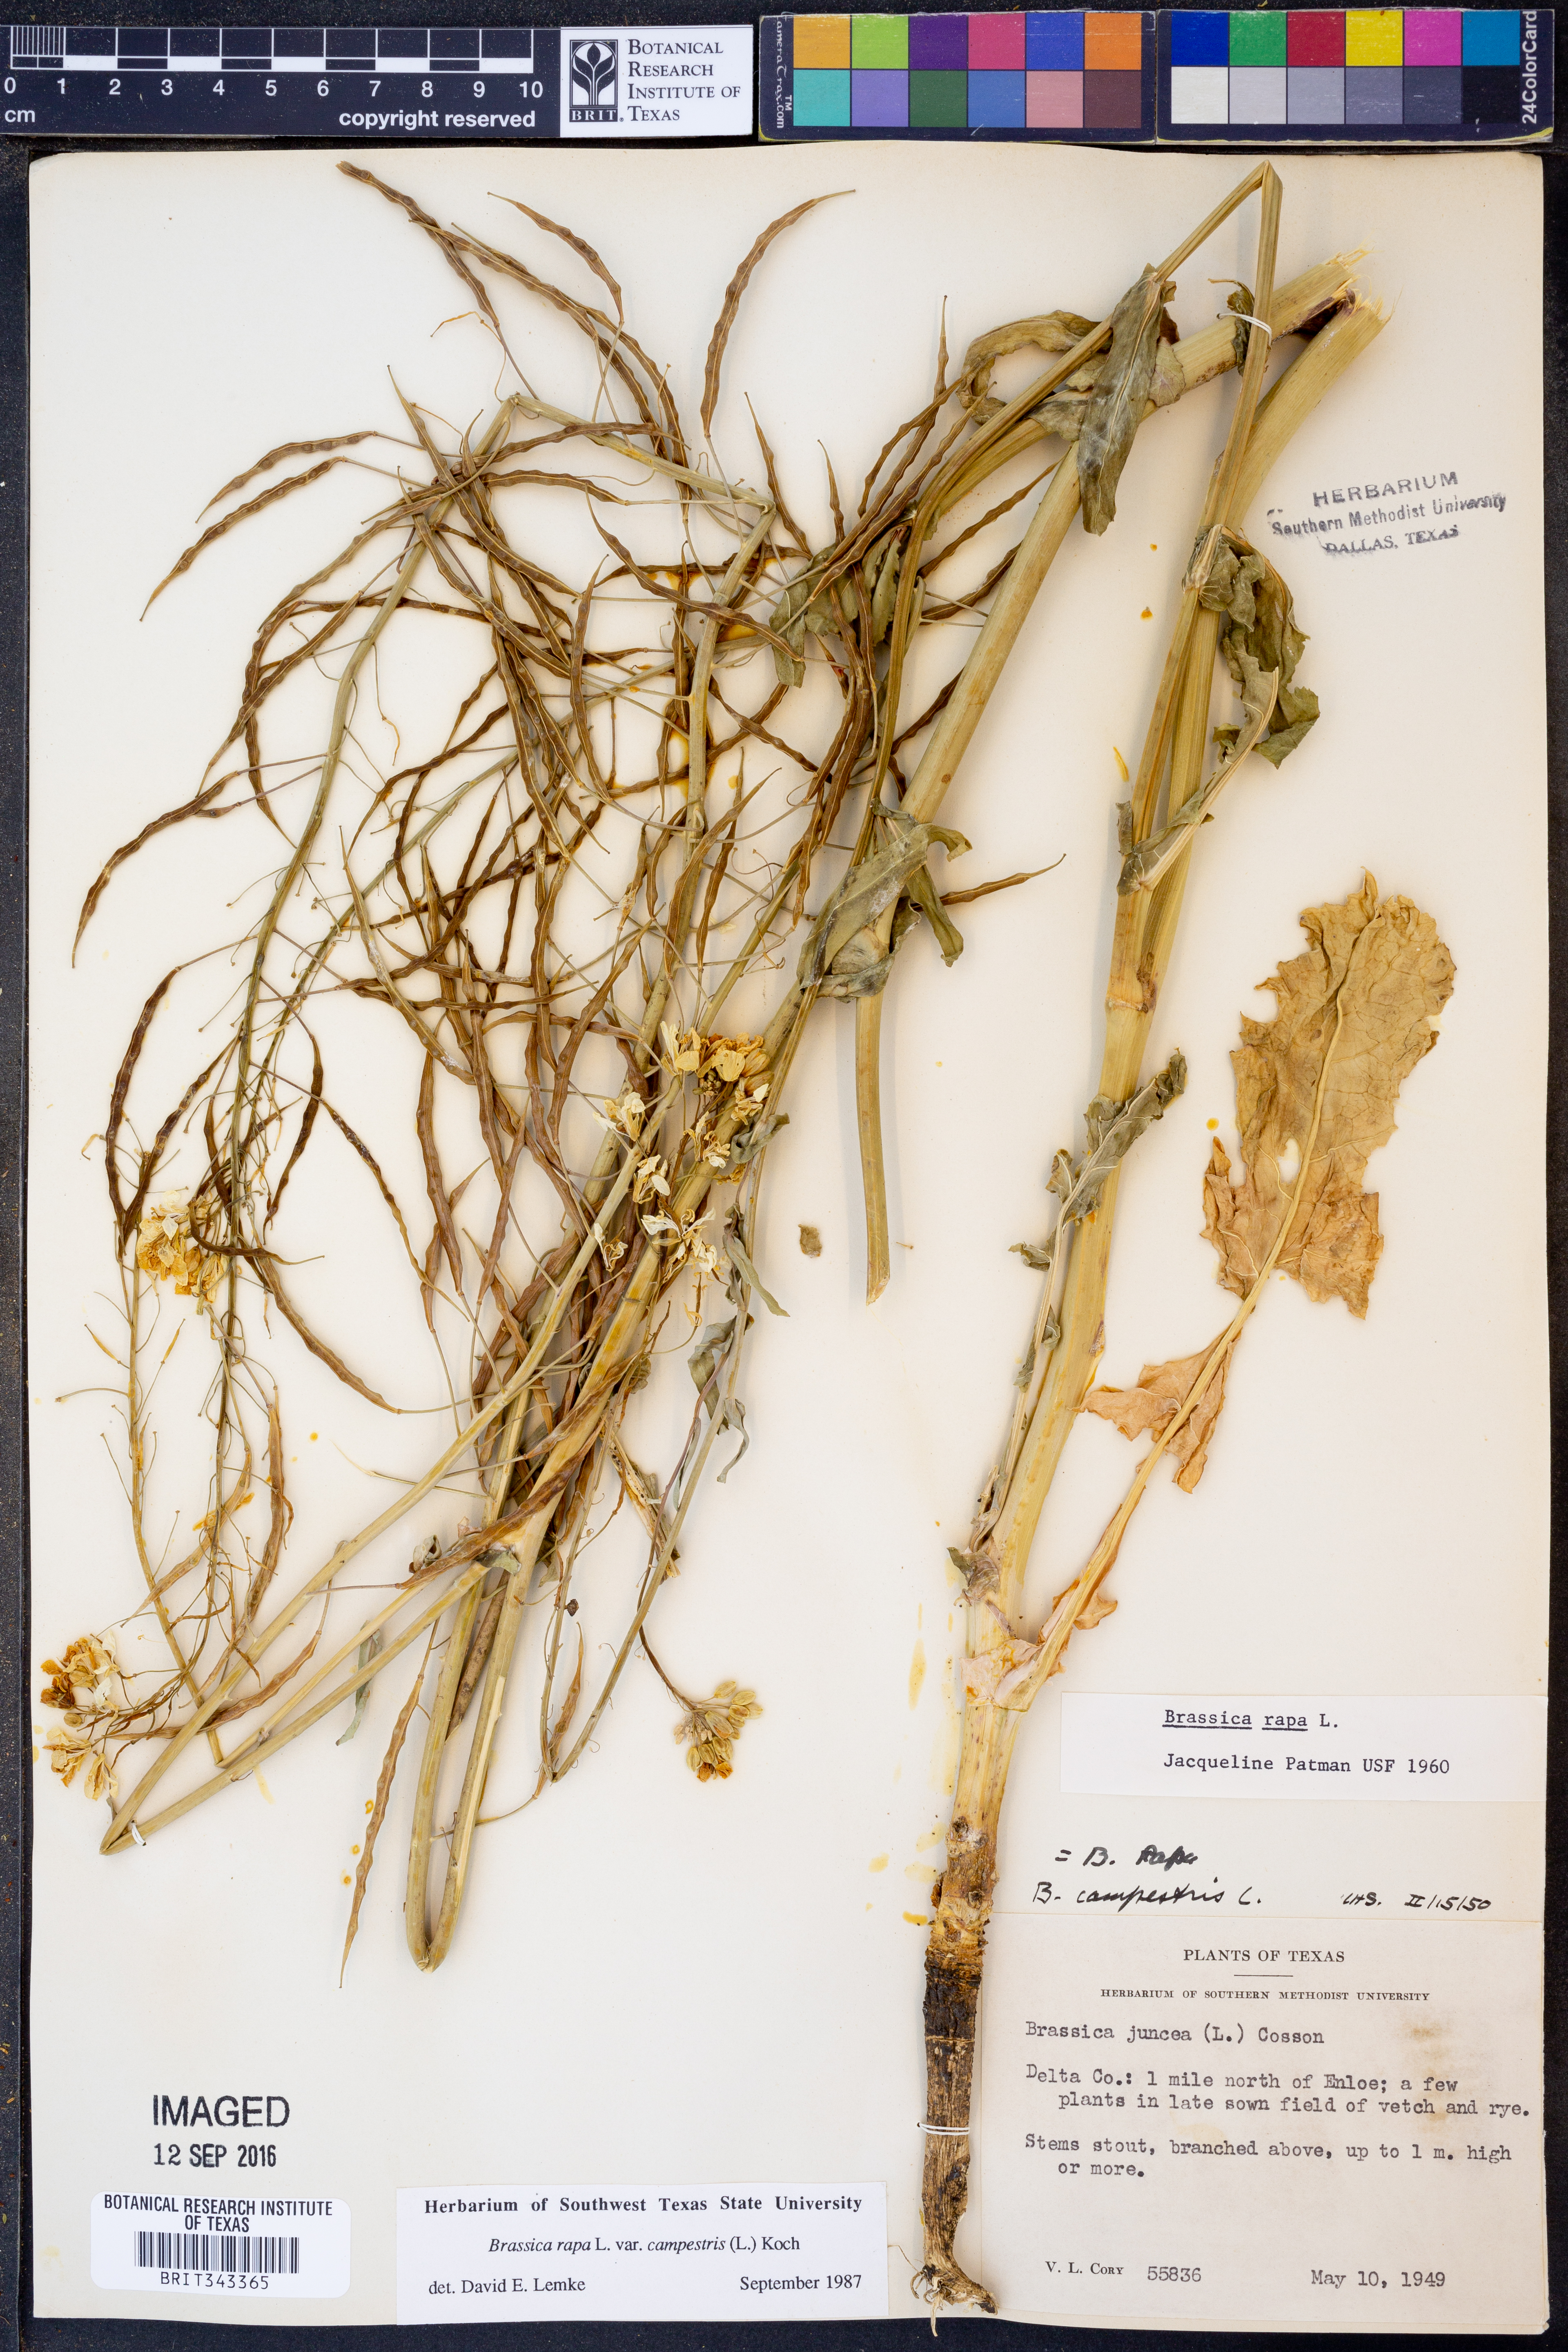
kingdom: Plantae
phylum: Tracheophyta
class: Magnoliopsida
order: Brassicales
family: Brassicaceae
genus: Brassica
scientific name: Brassica rapa
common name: Field mustard
